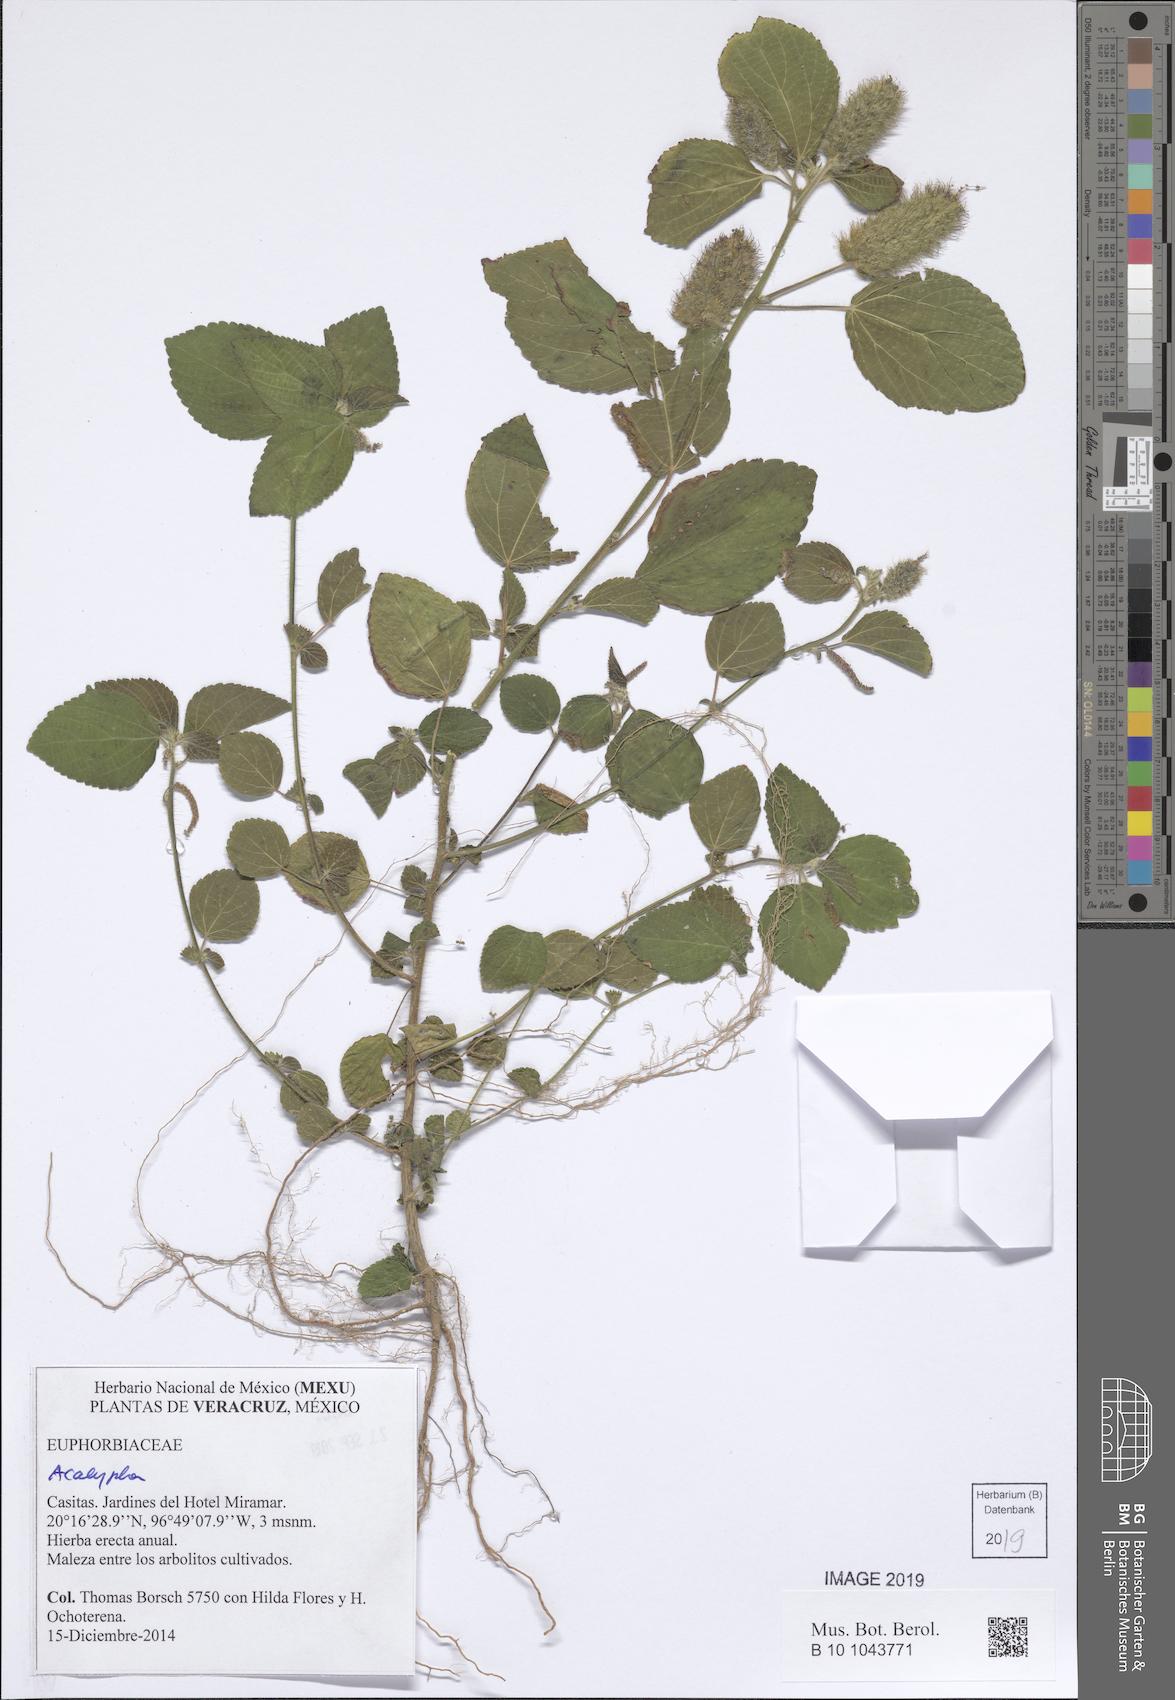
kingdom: Plantae
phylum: Tracheophyta
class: Magnoliopsida
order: Malpighiales
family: Euphorbiaceae
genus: Acalypha
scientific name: Acalypha
